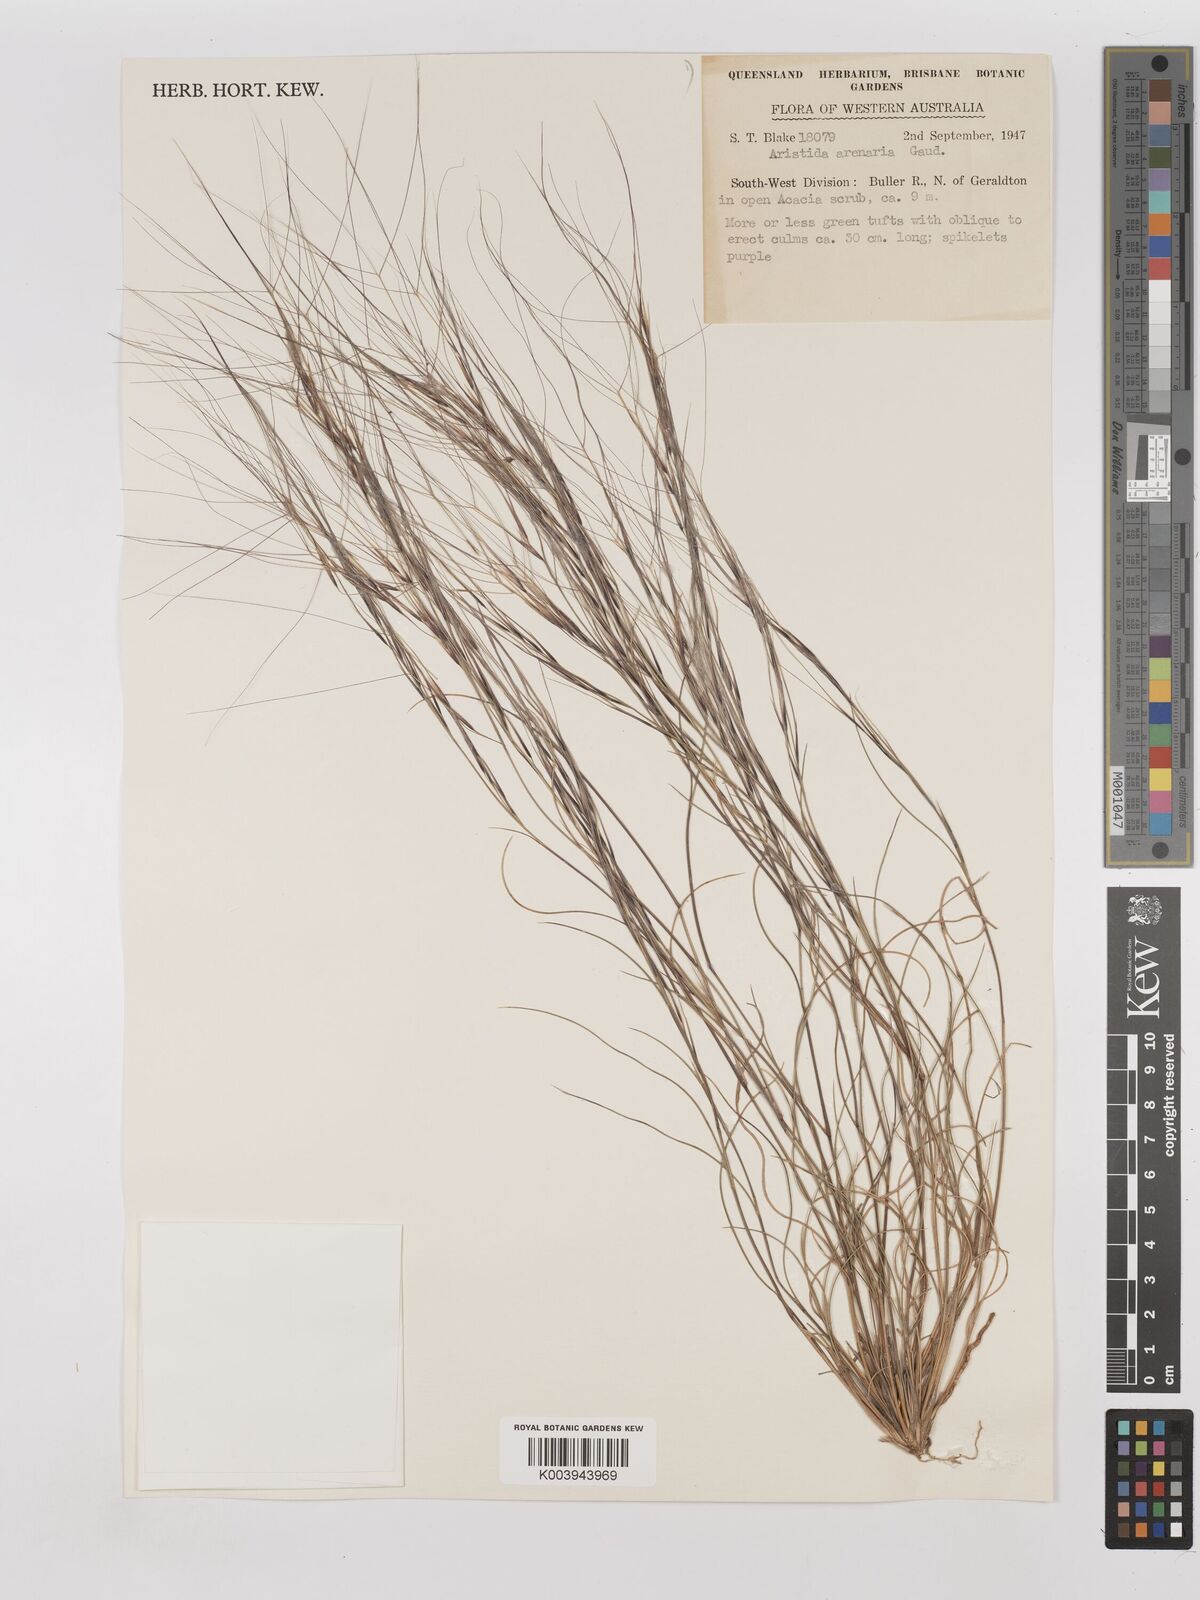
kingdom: Plantae
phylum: Tracheophyta
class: Liliopsida
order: Poales
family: Poaceae
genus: Aristida
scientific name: Aristida contorta
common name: Bunch kerosene grass
